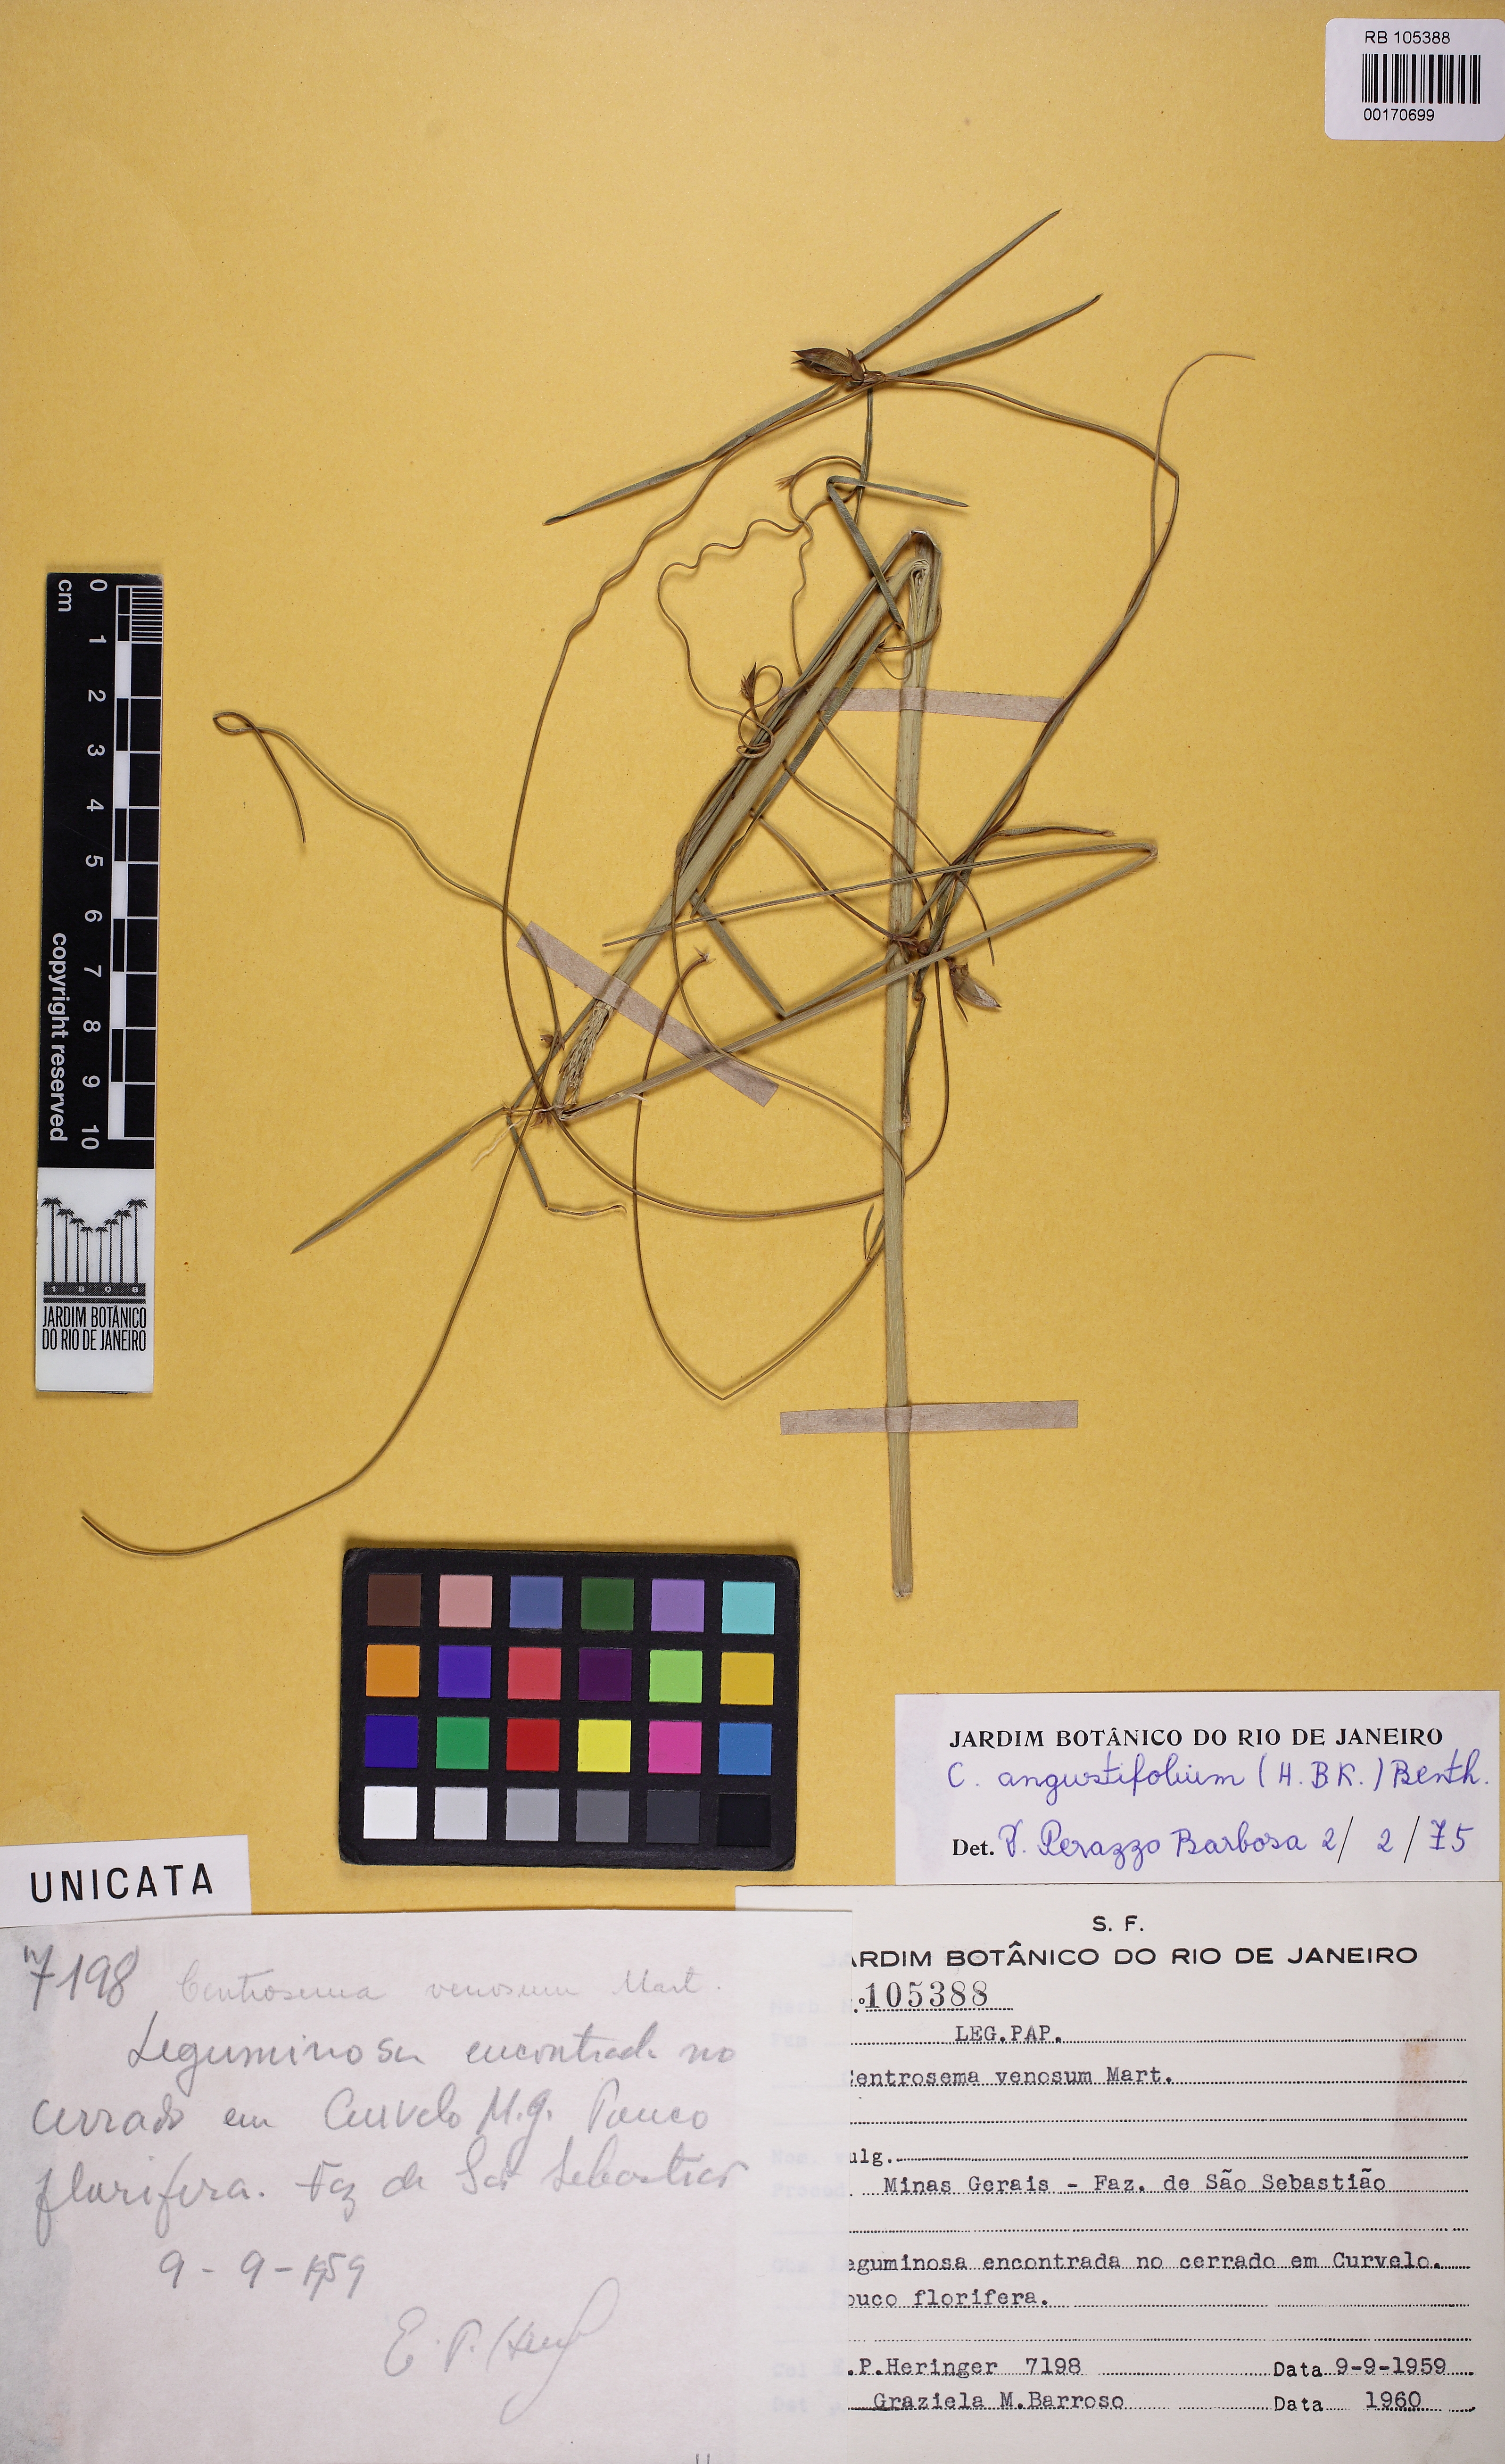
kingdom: Plantae
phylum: Tracheophyta
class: Magnoliopsida
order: Fabales
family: Fabaceae
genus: Centrosema
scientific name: Centrosema angustifolium
